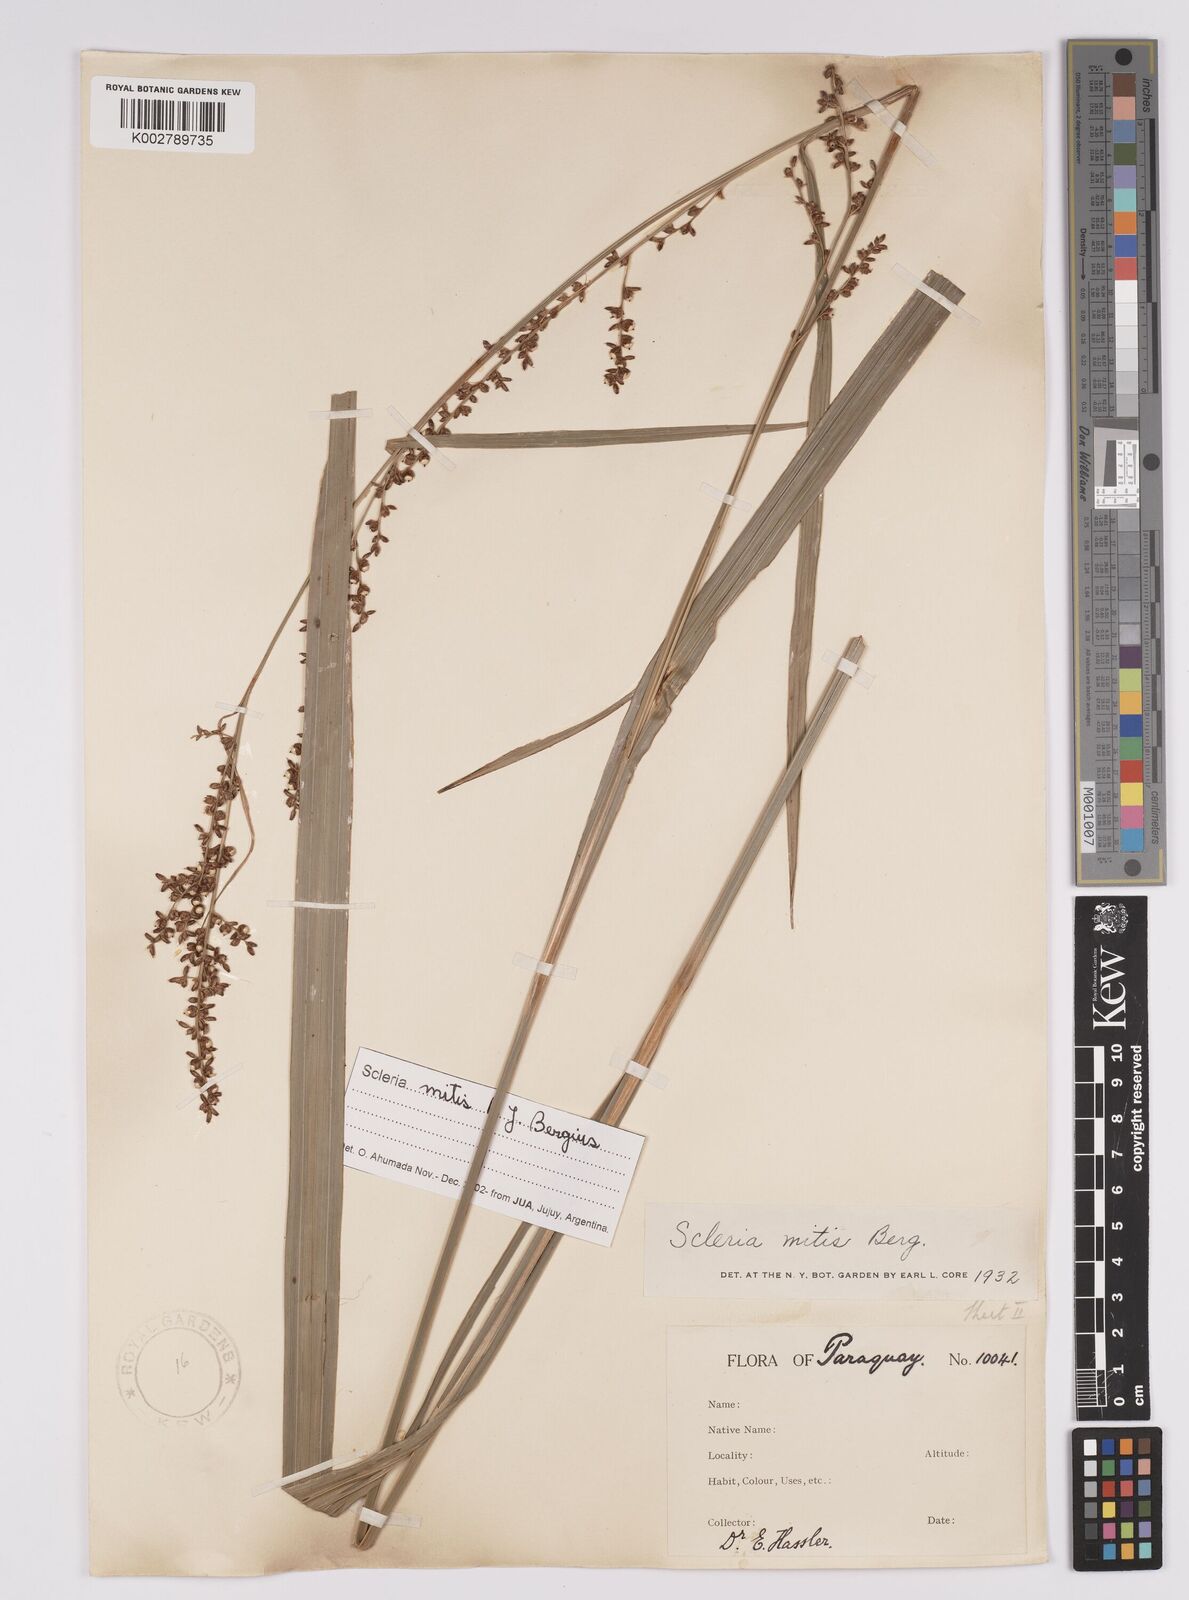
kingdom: Plantae
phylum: Tracheophyta
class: Liliopsida
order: Poales
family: Cyperaceae
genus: Scleria
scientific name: Scleria mitis
